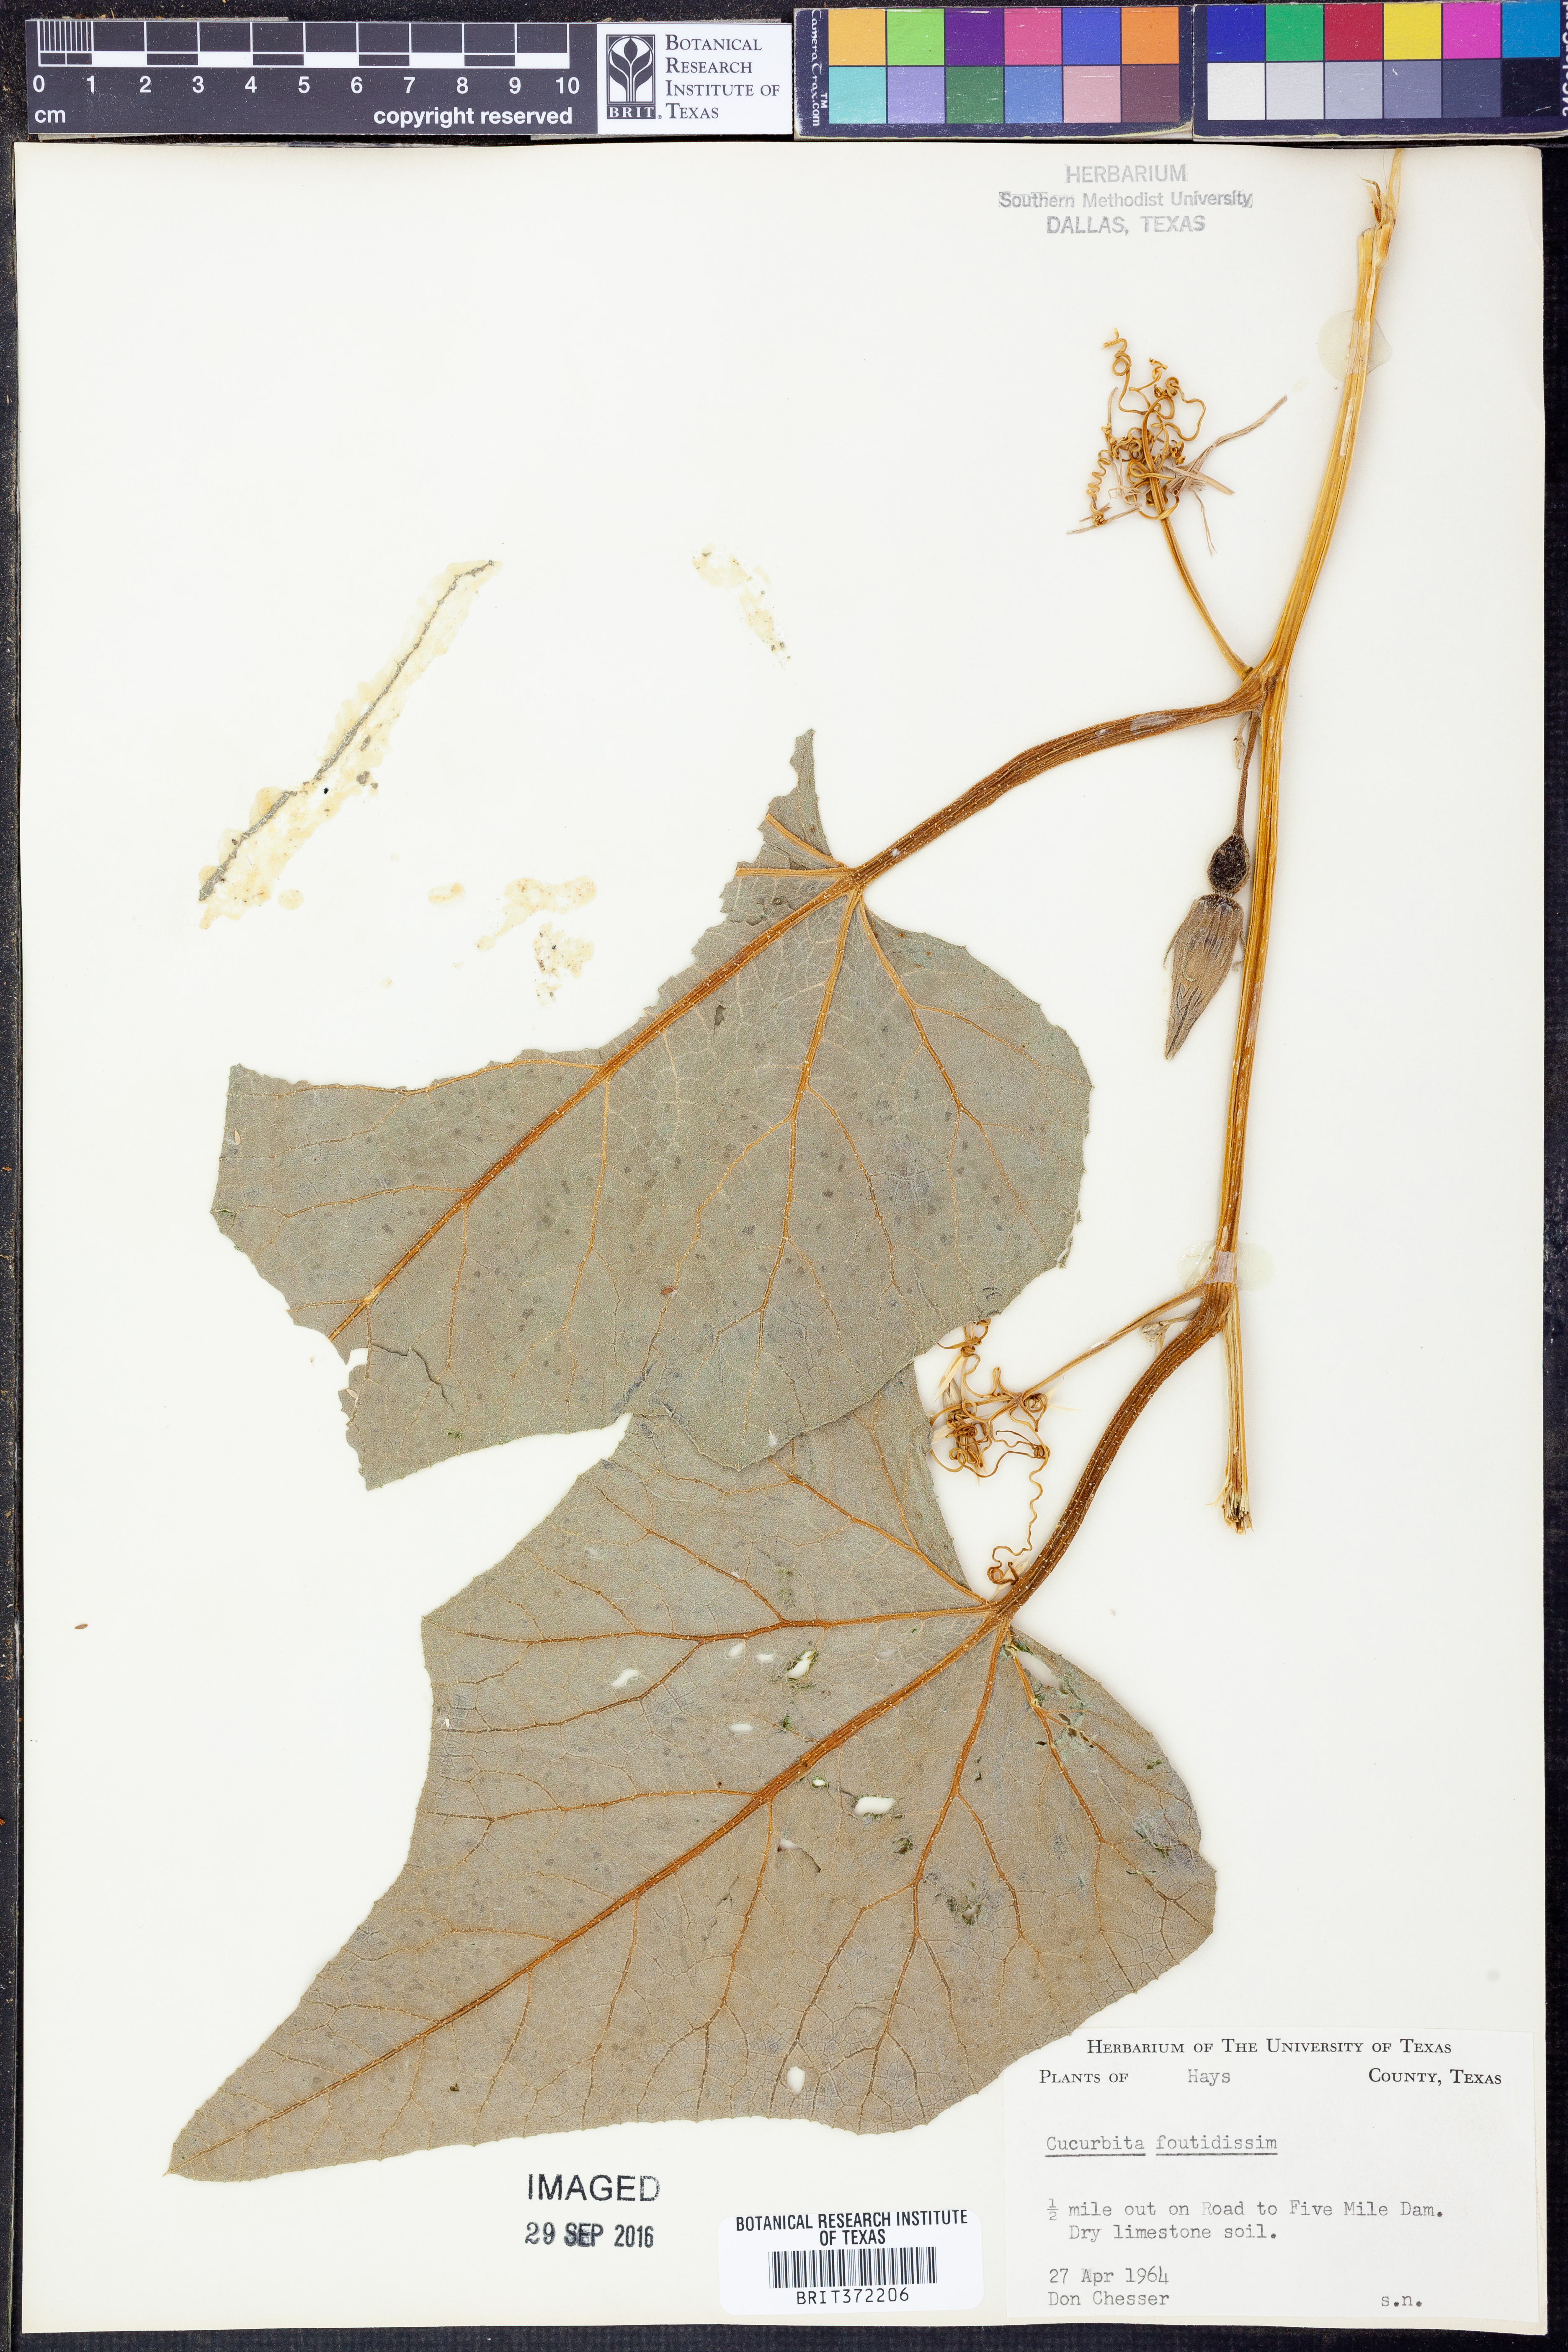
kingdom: Plantae
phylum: Tracheophyta
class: Magnoliopsida
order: Cucurbitales
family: Cucurbitaceae
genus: Cucurbita
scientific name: Cucurbita foetidissima
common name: Buffalo gourd
